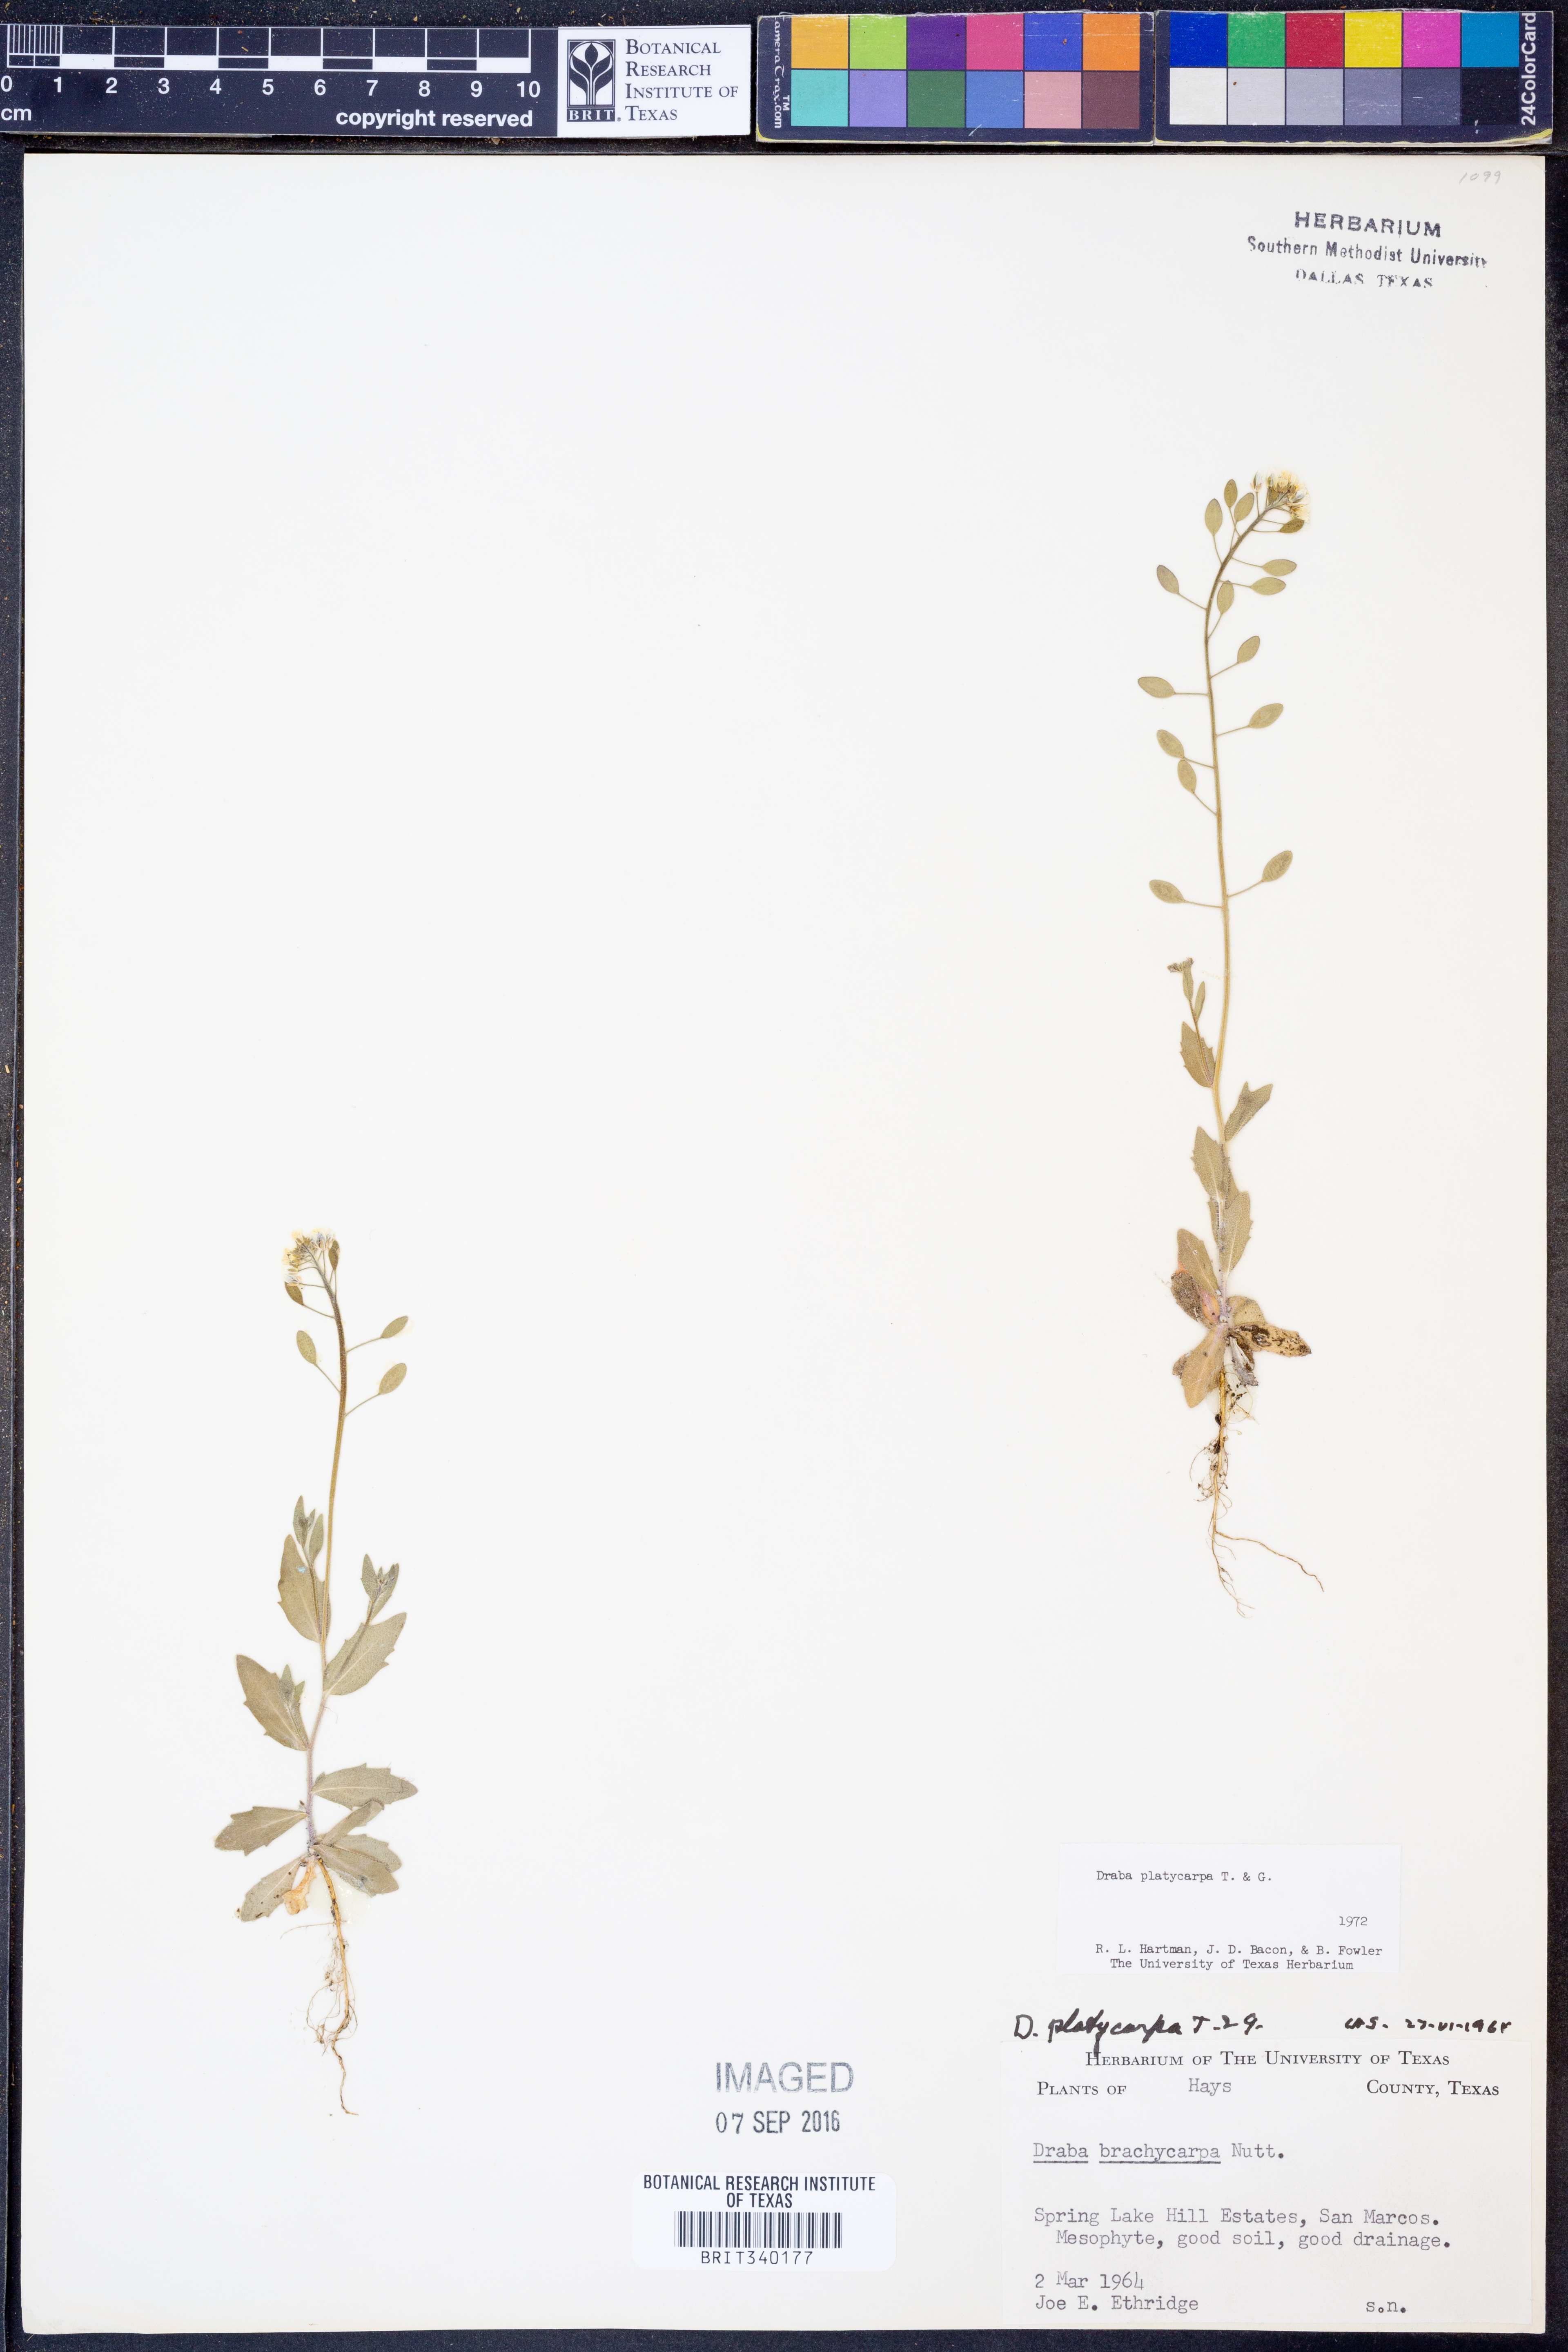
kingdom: Plantae
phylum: Tracheophyta
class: Magnoliopsida
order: Brassicales
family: Brassicaceae
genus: Tomostima
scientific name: Tomostima platycarpa
